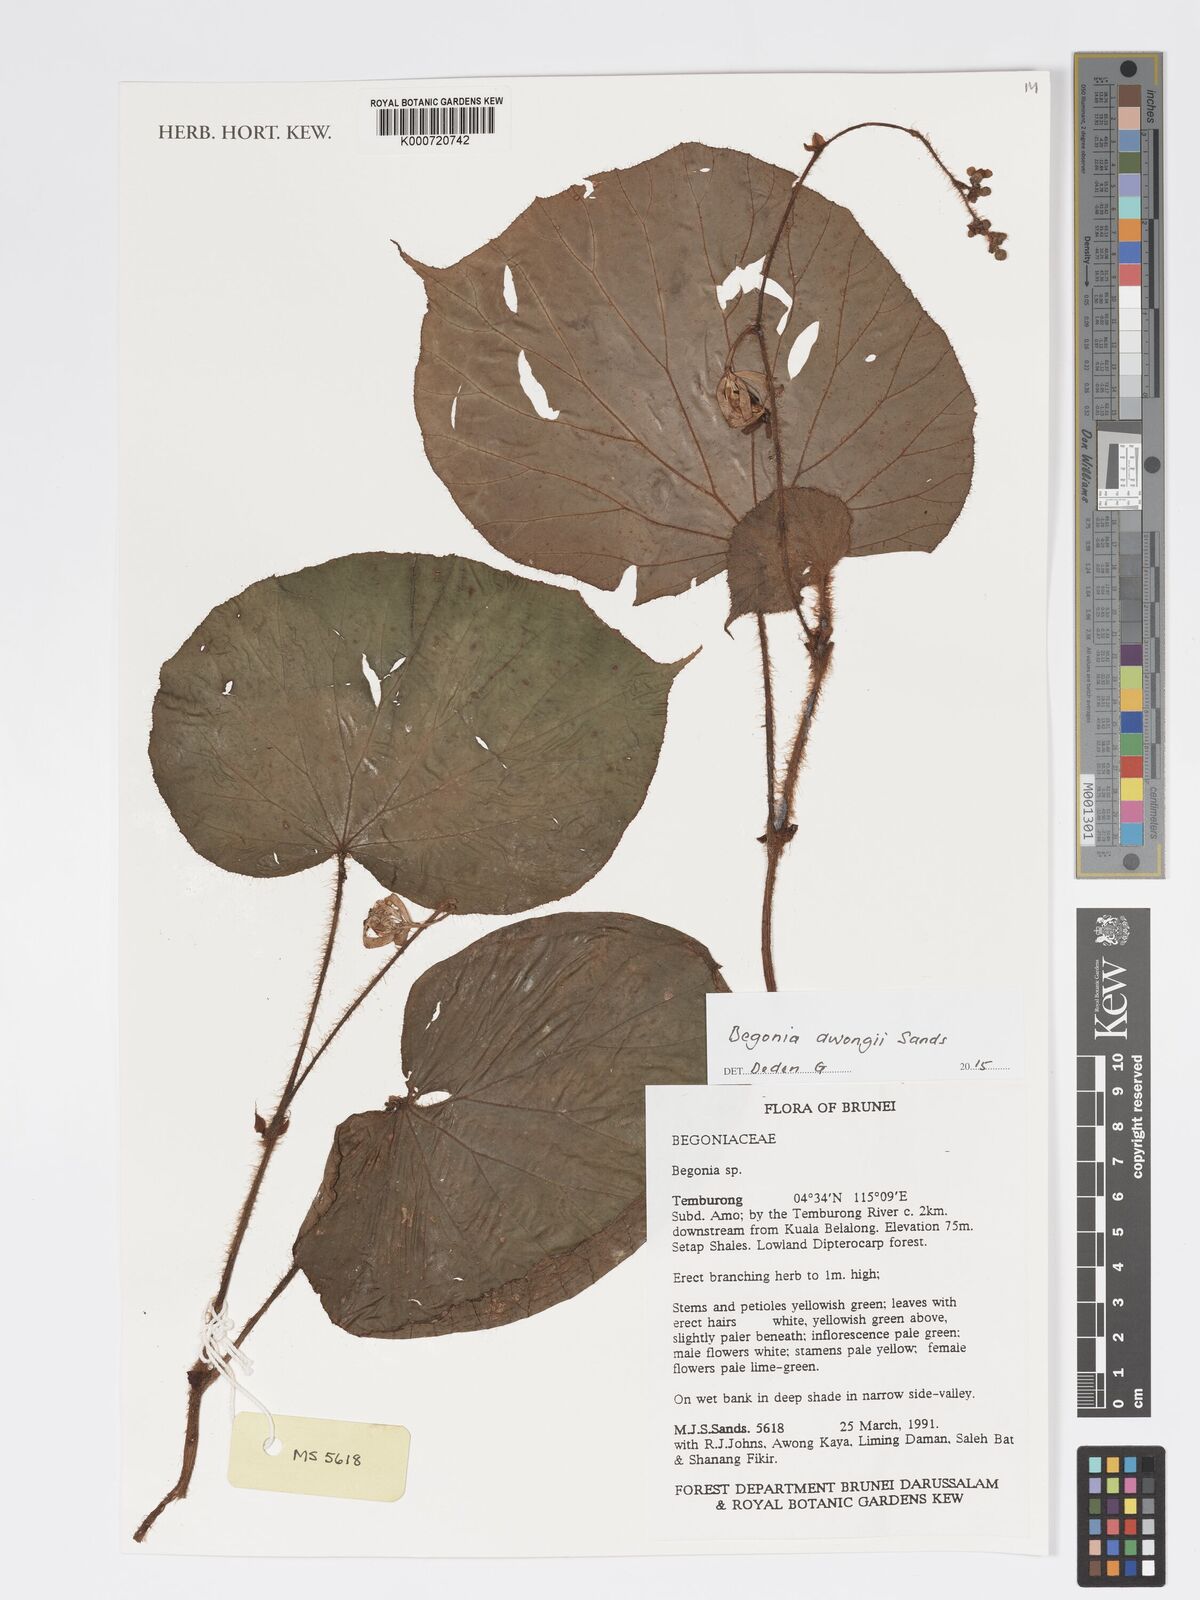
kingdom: Plantae
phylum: Tracheophyta
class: Magnoliopsida
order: Cucurbitales
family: Begoniaceae
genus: Begonia
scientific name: Begonia awongii
